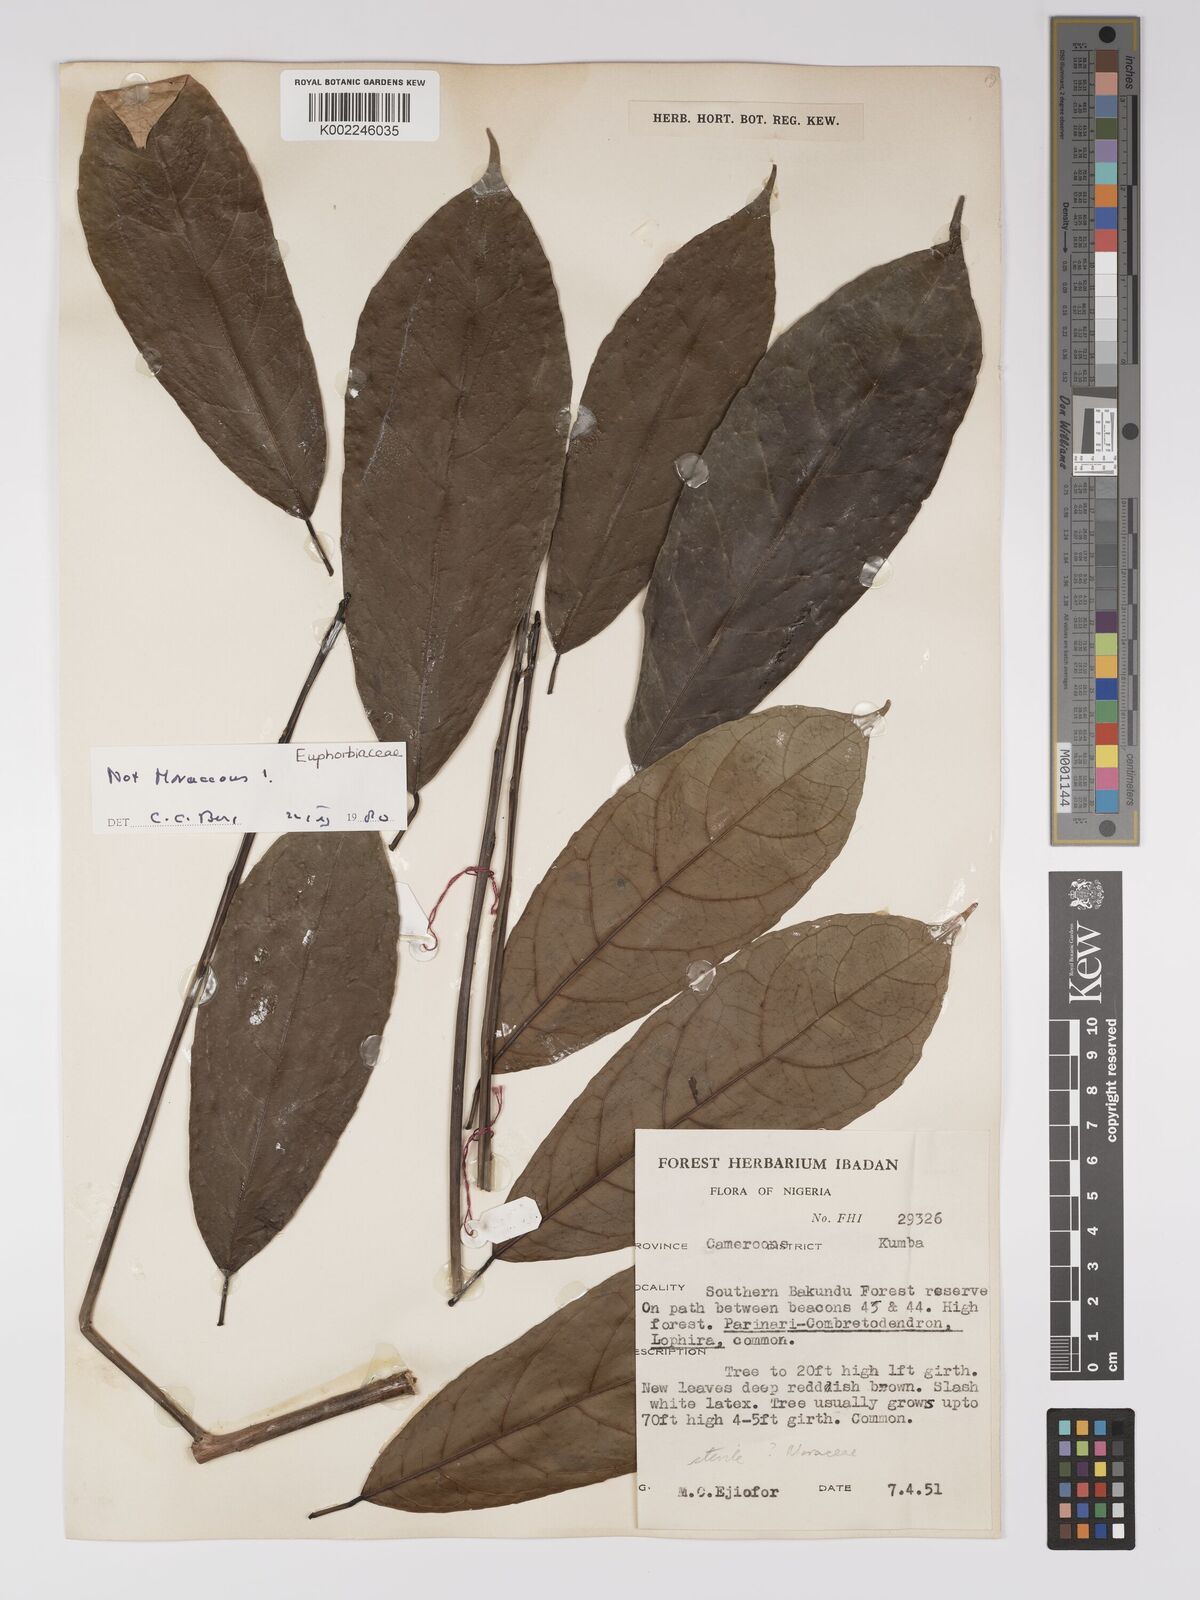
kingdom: Plantae
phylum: Tracheophyta
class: Magnoliopsida
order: Malpighiales
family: Euphorbiaceae
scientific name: Euphorbiaceae
